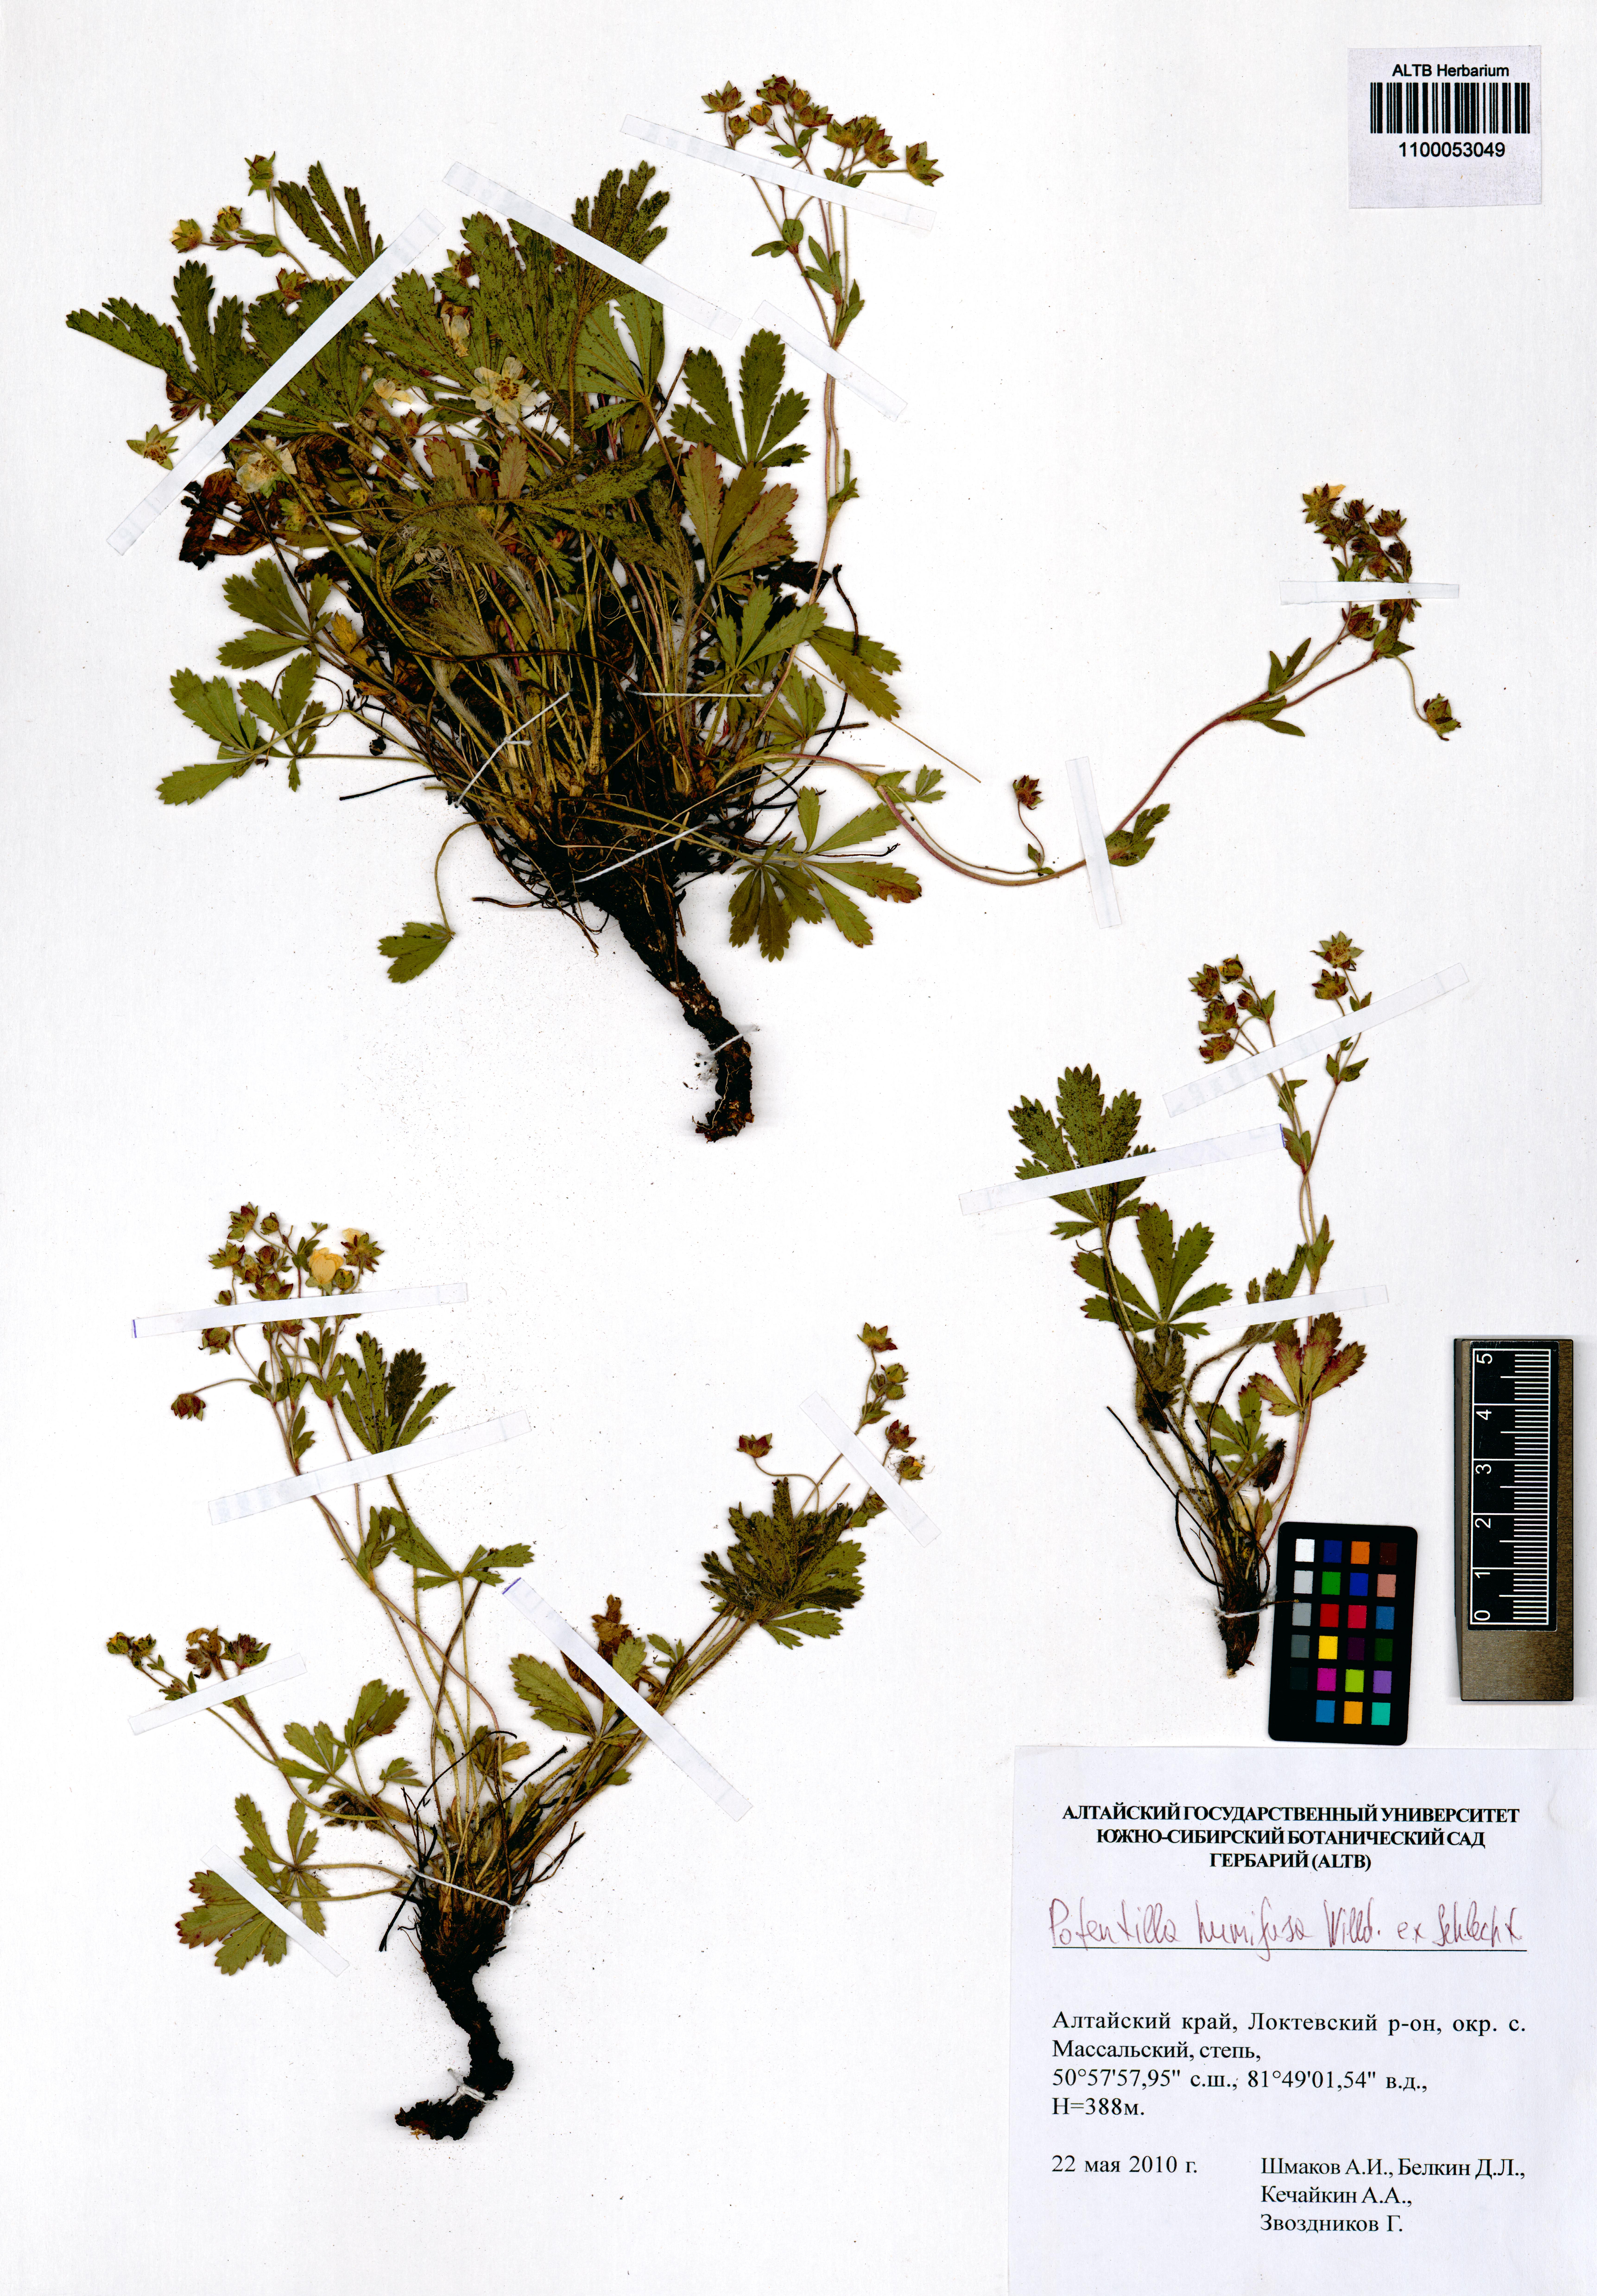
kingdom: Plantae
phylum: Tracheophyta
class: Magnoliopsida
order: Rosales
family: Rosaceae
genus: Potentilla
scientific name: Potentilla humifusa
